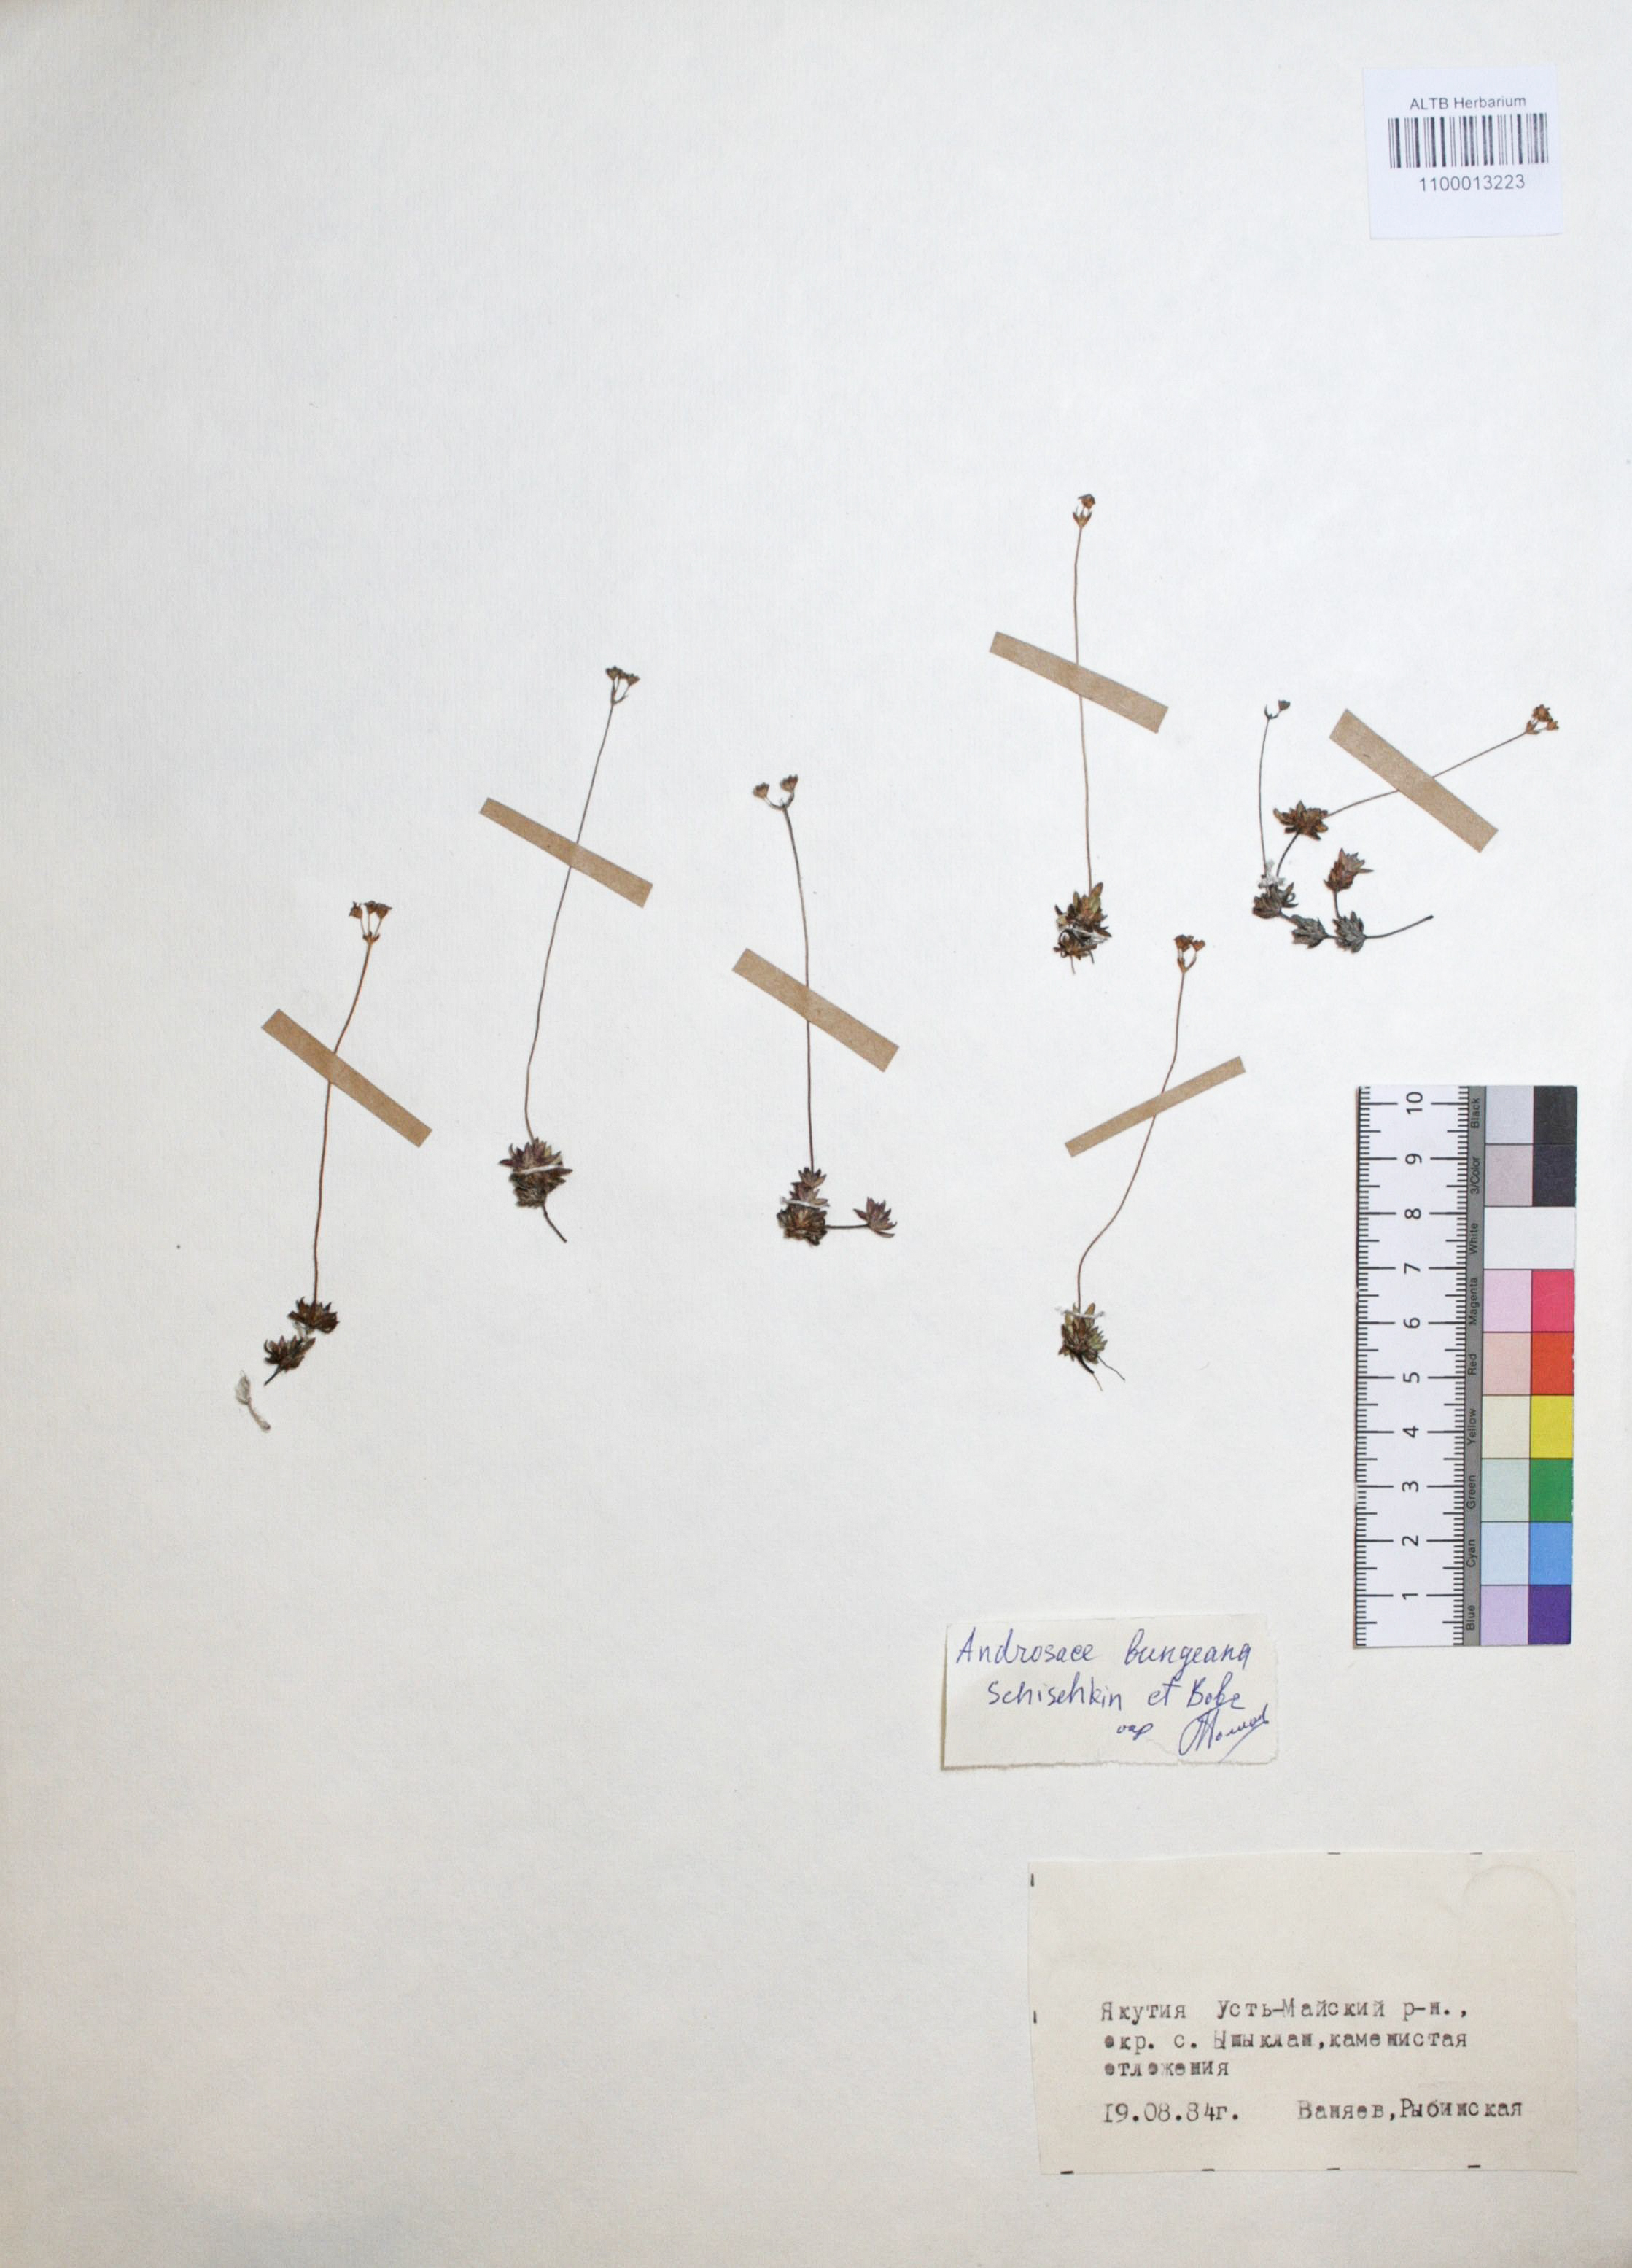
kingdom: Plantae
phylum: Tracheophyta
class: Magnoliopsida
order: Ericales
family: Primulaceae
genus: Androsace
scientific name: Androsace bungeana
